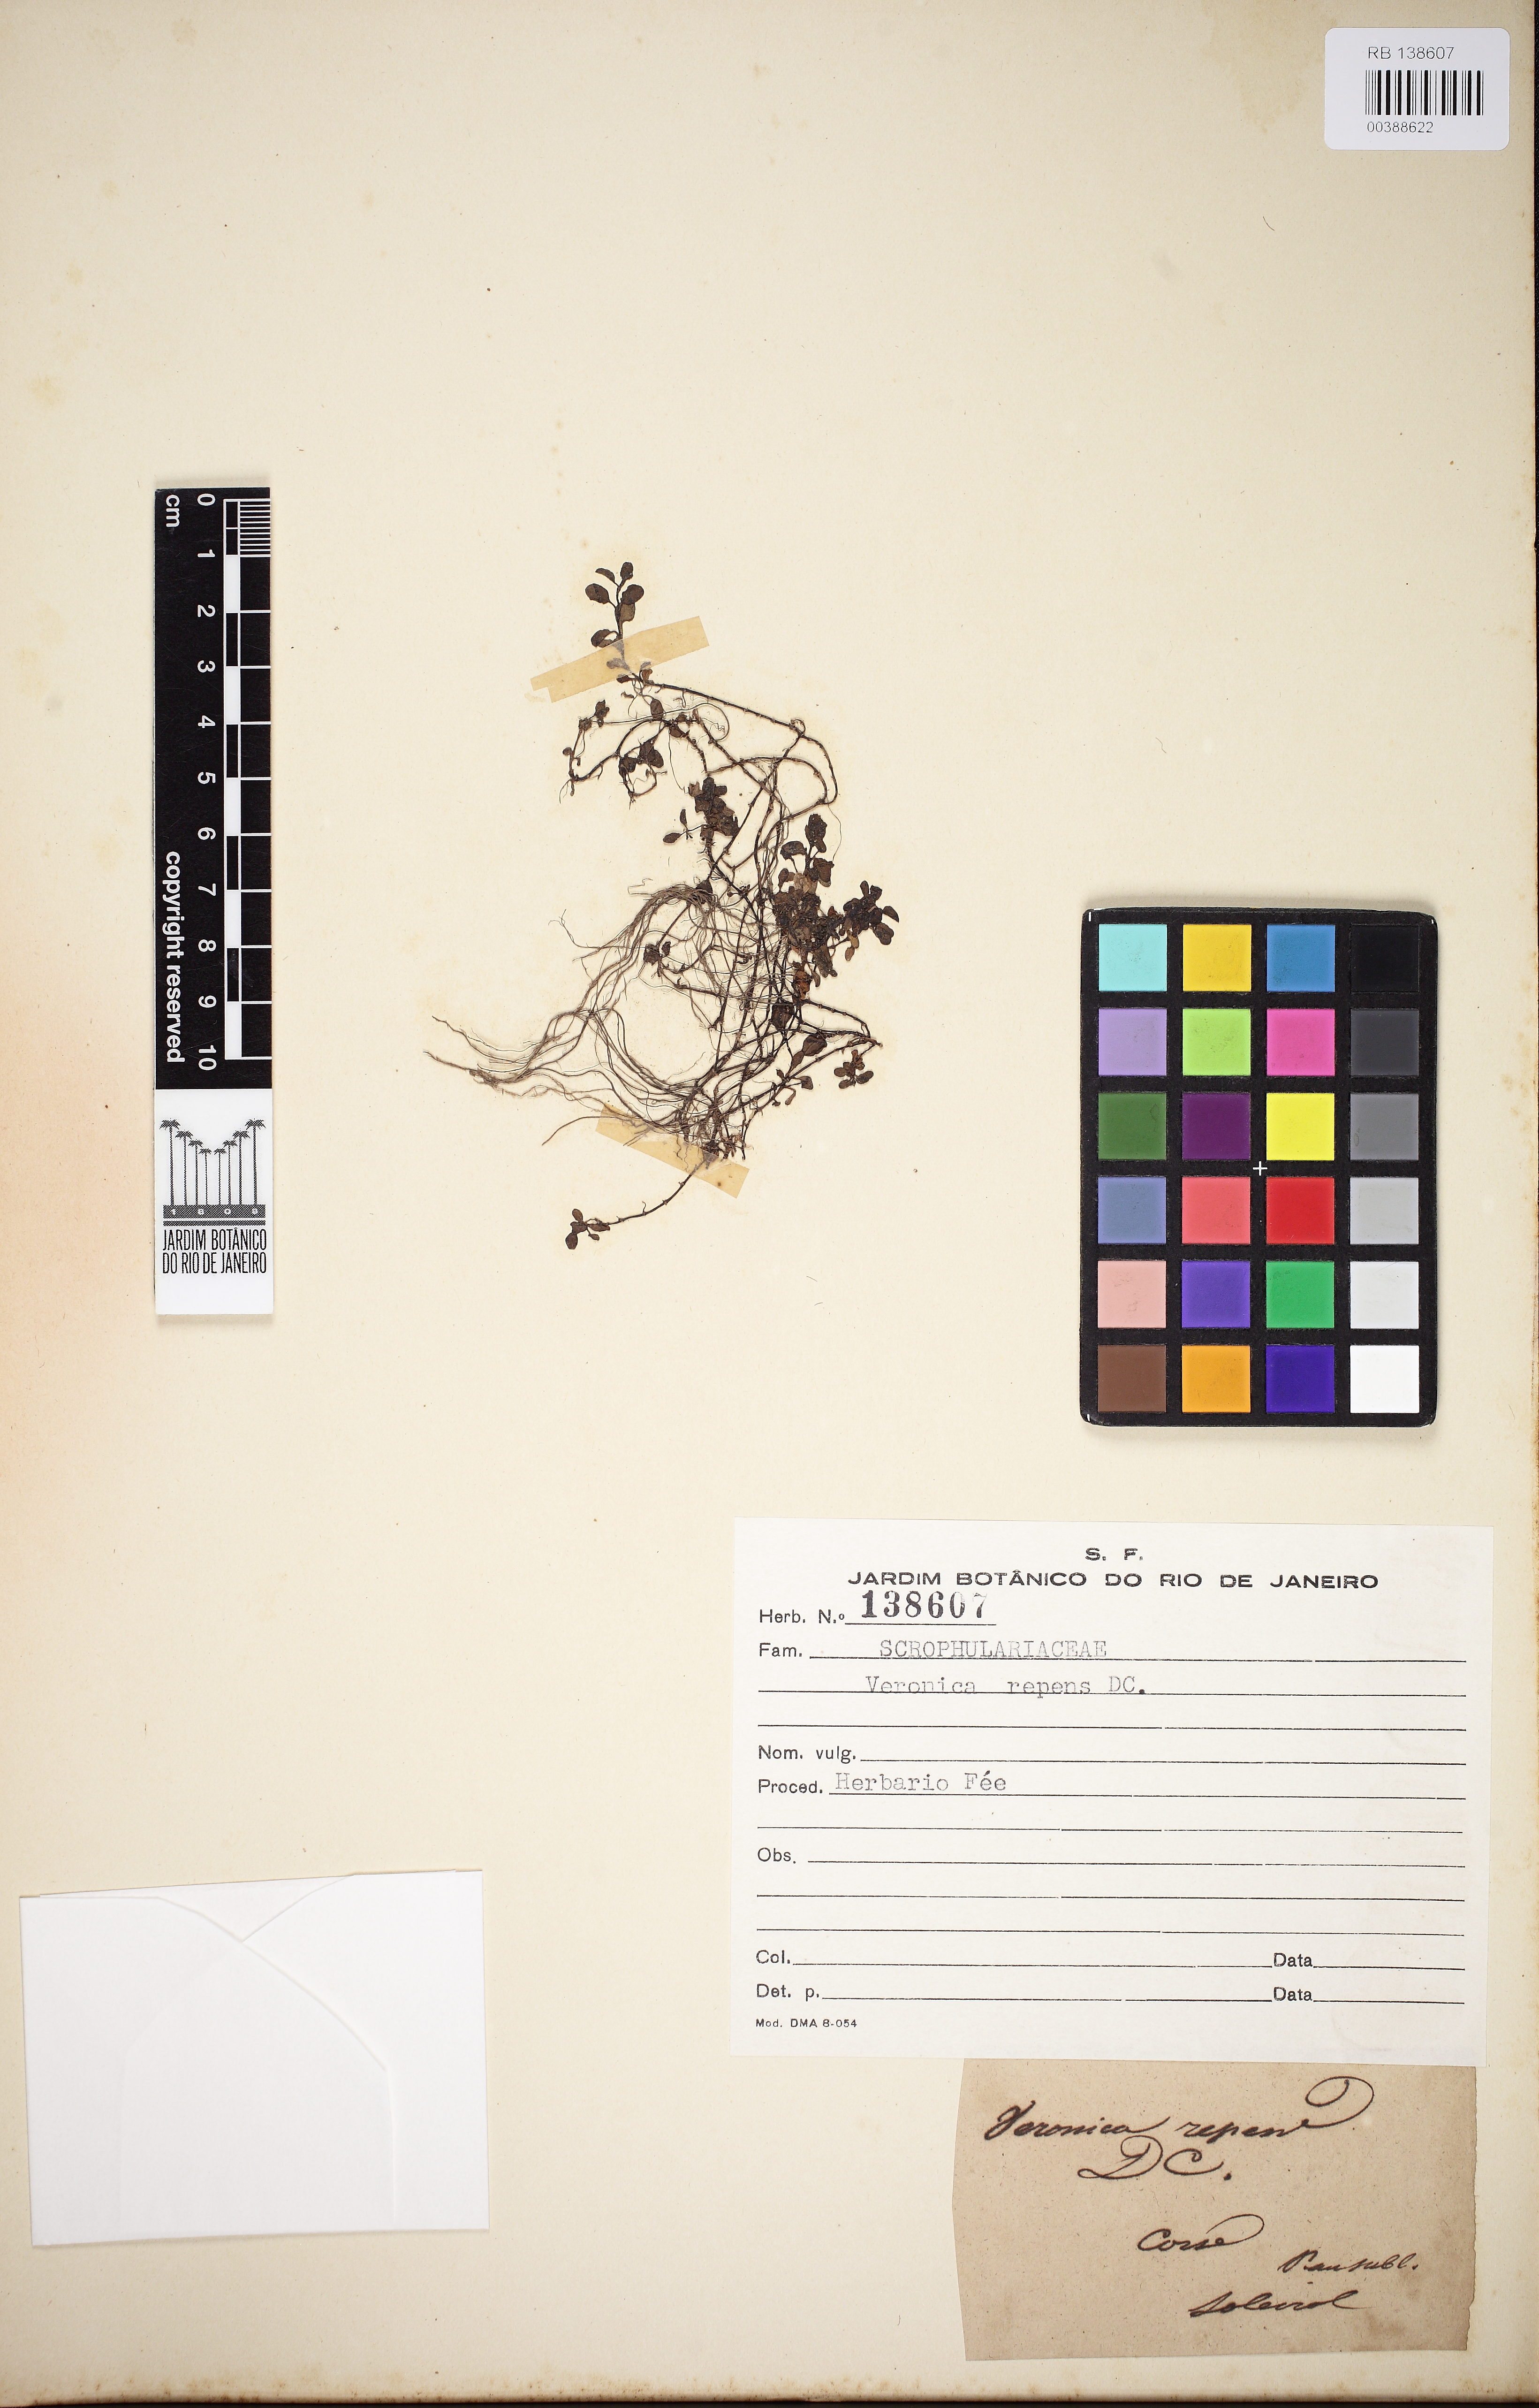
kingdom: Plantae
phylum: Tracheophyta
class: Magnoliopsida
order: Lamiales
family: Plantaginaceae
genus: Veronica
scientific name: Veronica repens
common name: Corsican speedwell
